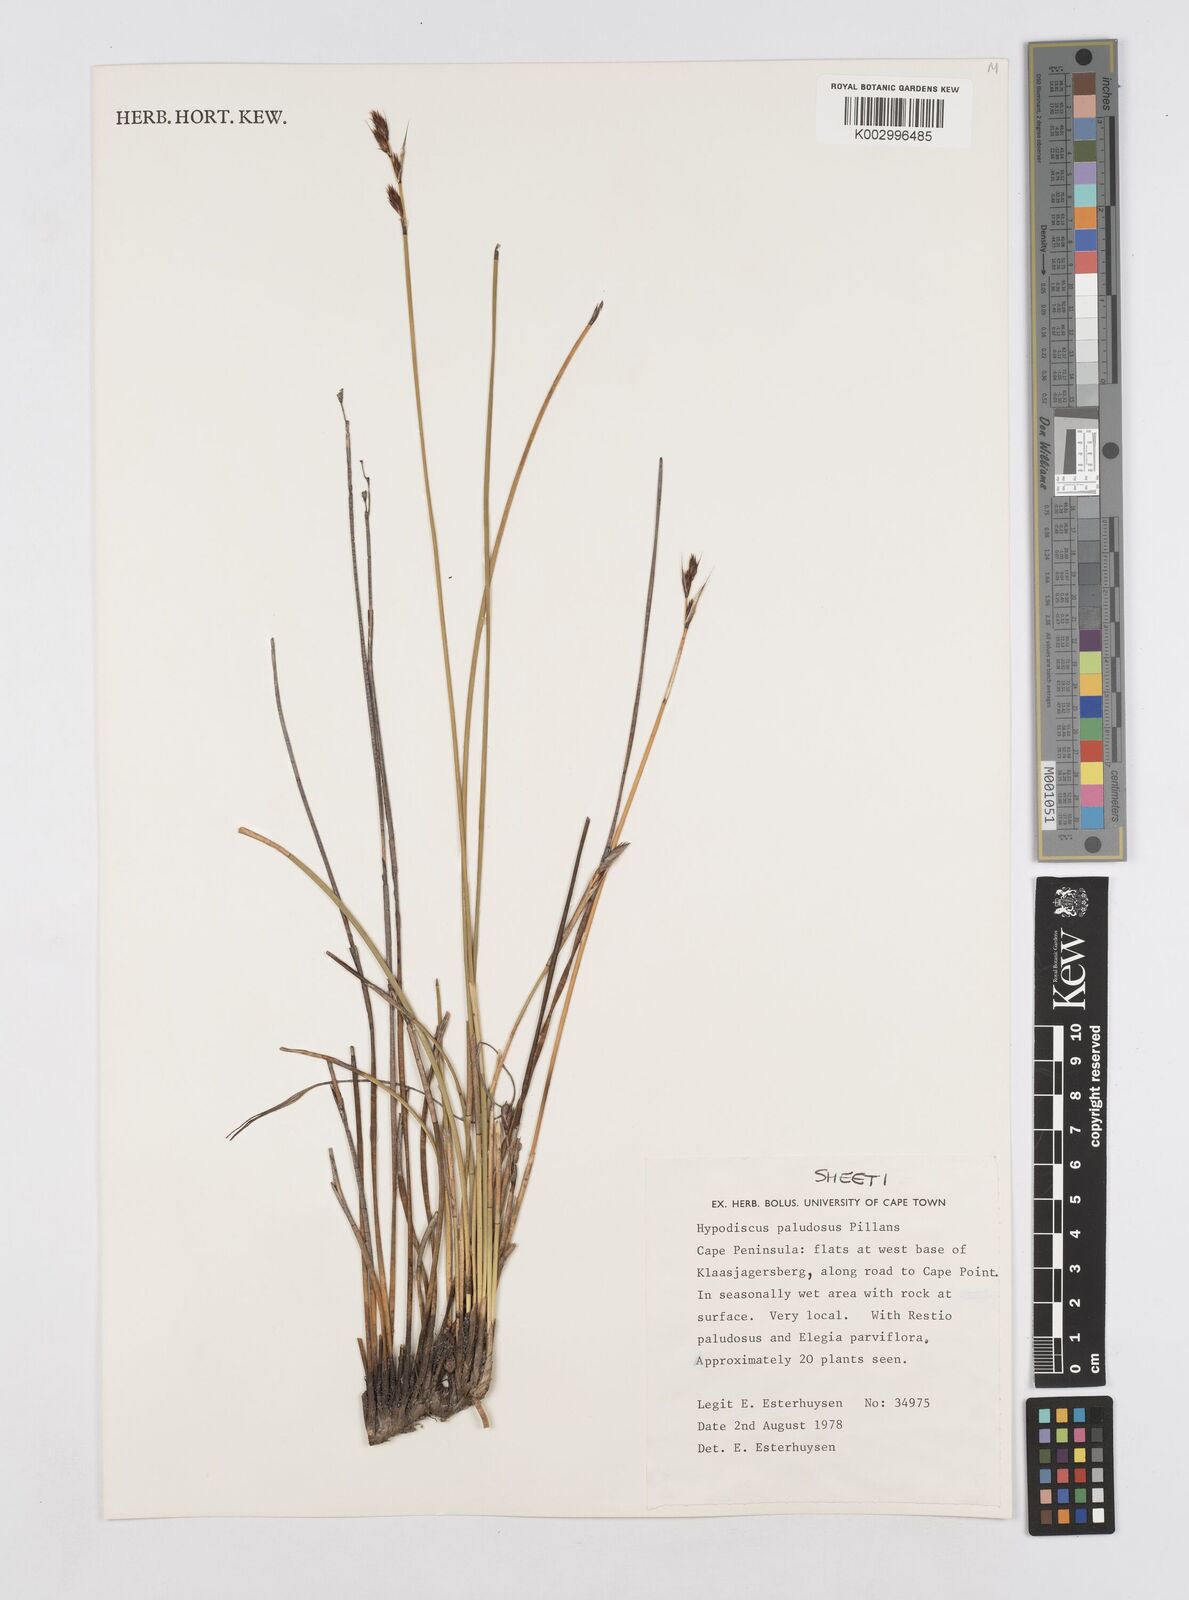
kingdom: Plantae
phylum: Tracheophyta
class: Liliopsida
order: Poales
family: Restionaceae
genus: Hypodiscus
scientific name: Hypodiscus rugosus
